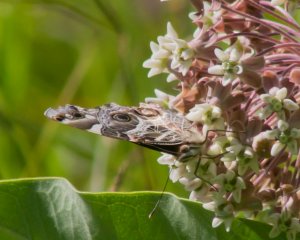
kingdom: Animalia
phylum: Arthropoda
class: Insecta
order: Lepidoptera
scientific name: Lepidoptera
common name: Butterflies
